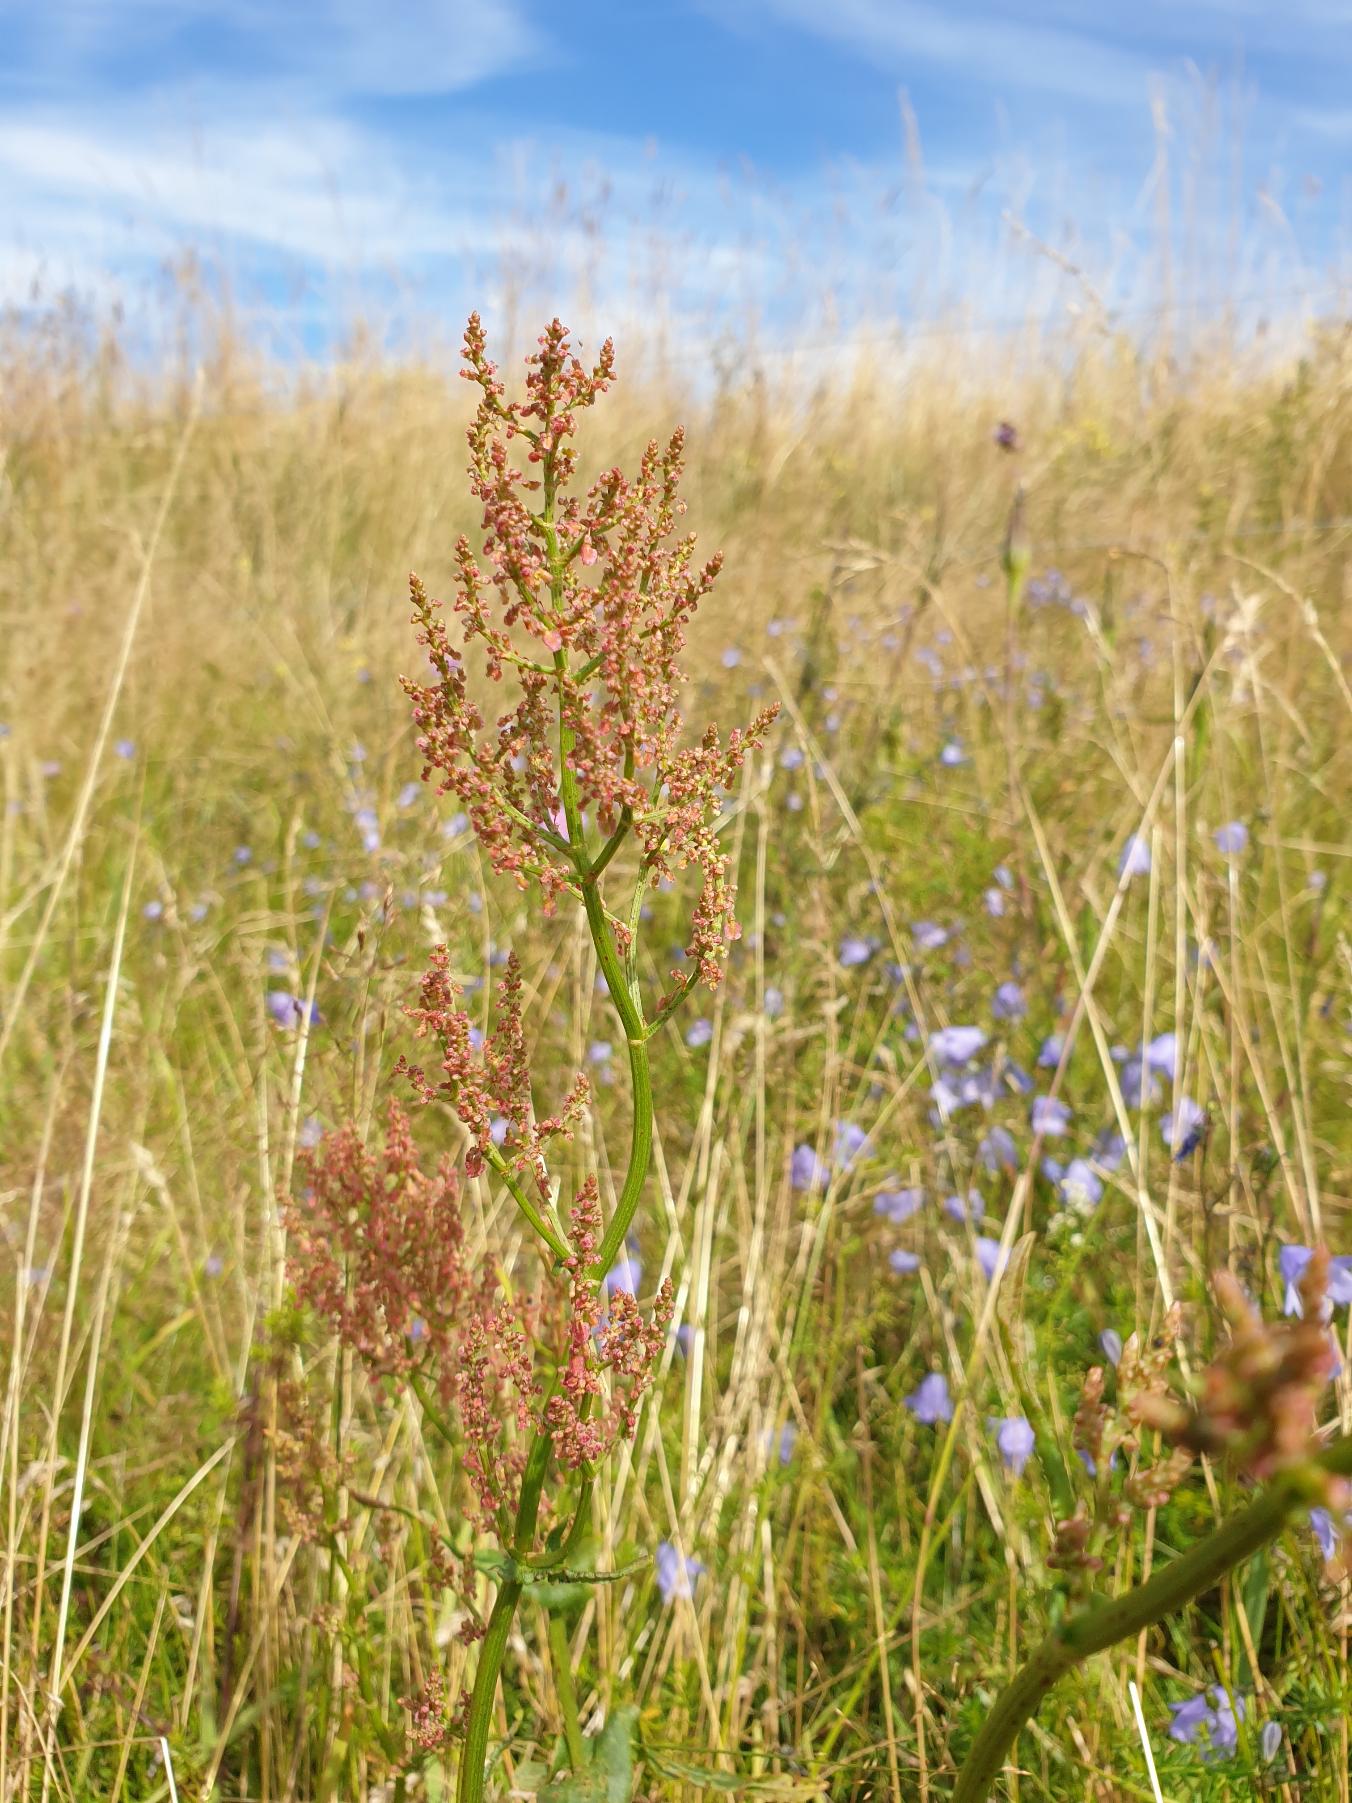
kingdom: Plantae
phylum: Tracheophyta
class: Magnoliopsida
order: Caryophyllales
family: Polygonaceae
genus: Rumex
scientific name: Rumex thyrsiflorus
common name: Dusk-syre
